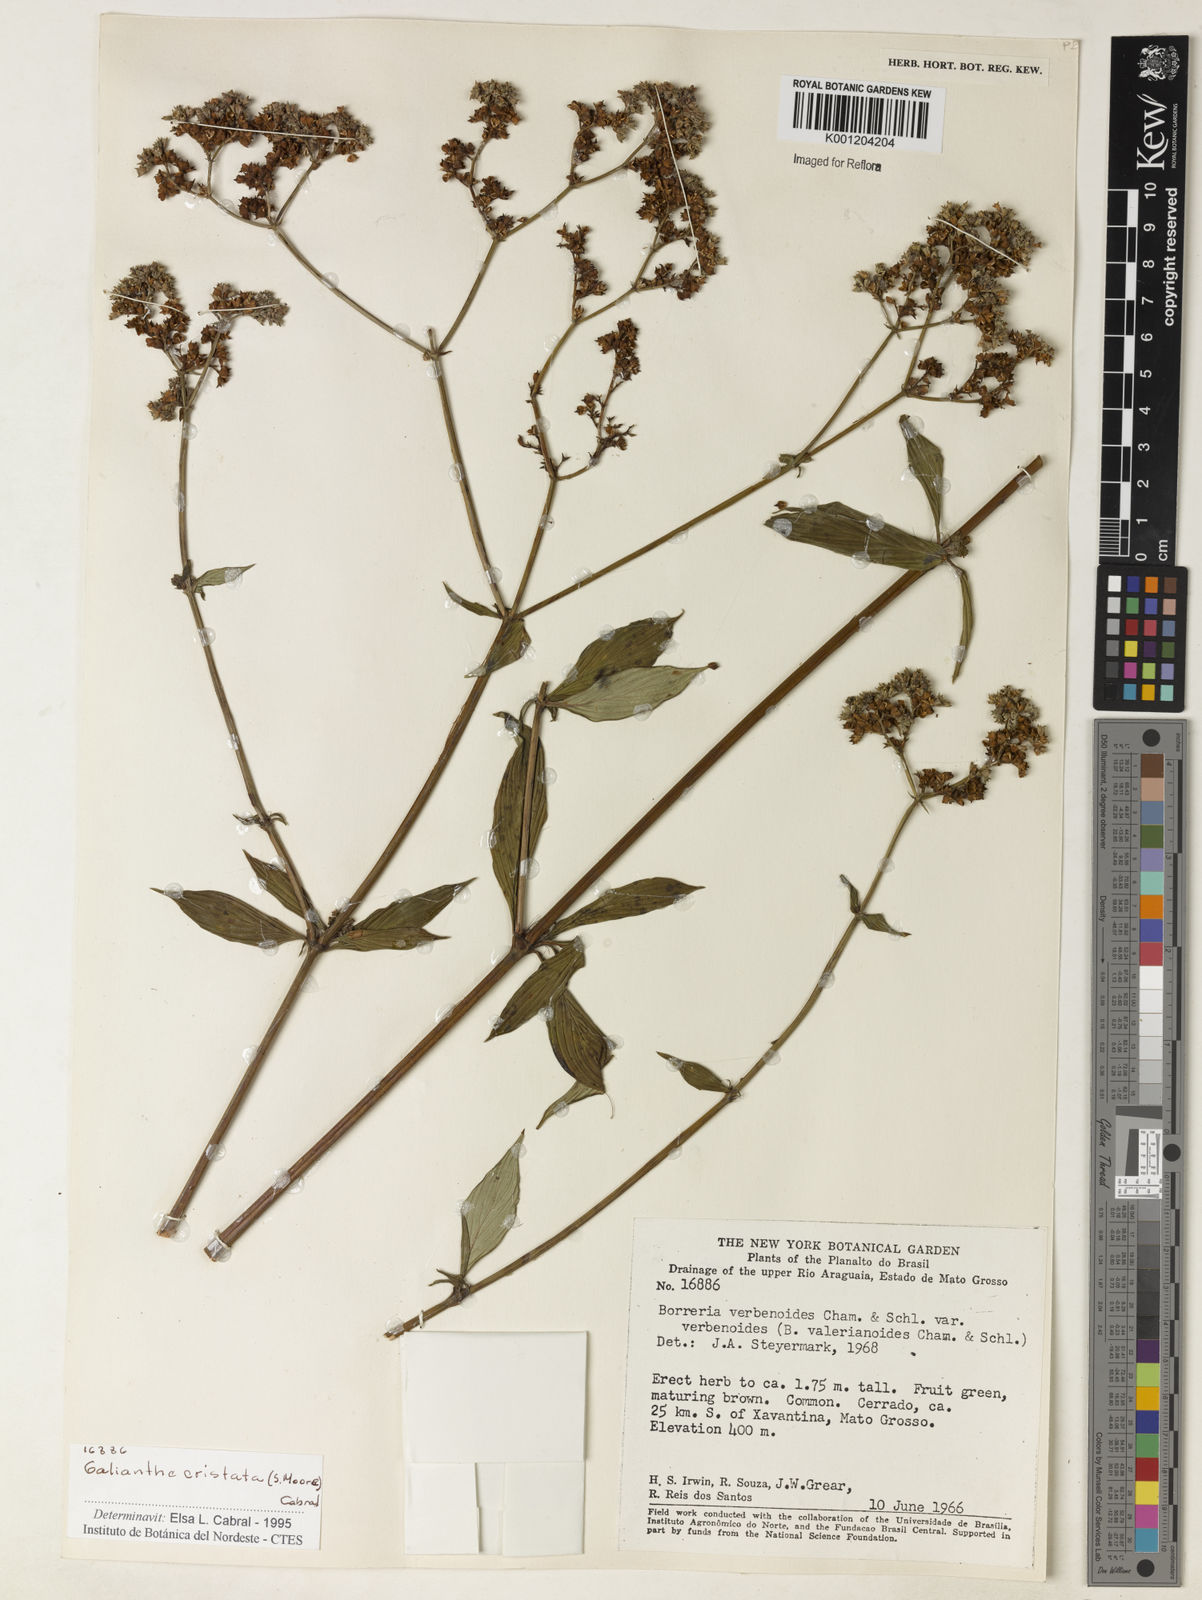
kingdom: Plantae
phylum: Tracheophyta
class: Magnoliopsida
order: Gentianales
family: Rubiaceae
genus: Galianthe
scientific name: Galianthe laxa
